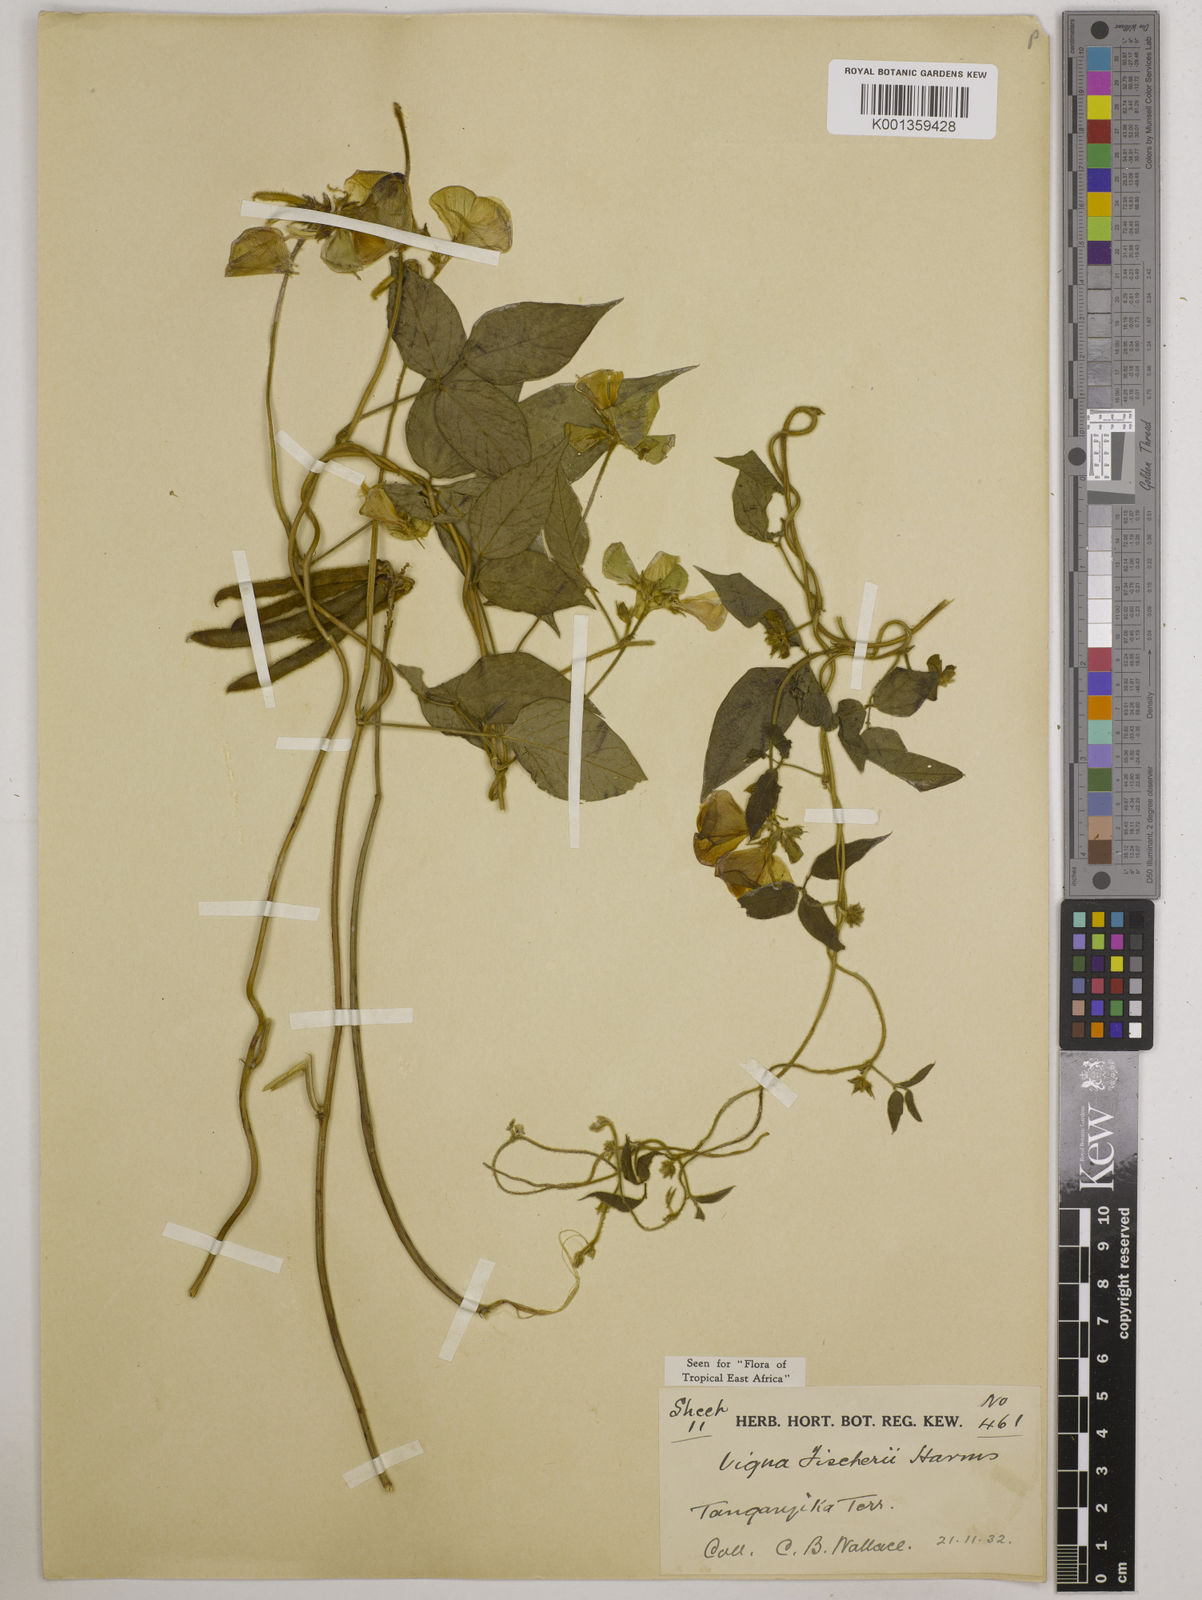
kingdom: Plantae
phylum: Tracheophyta
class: Magnoliopsida
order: Fabales
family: Fabaceae
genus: Vigna
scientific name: Vigna fischeri
